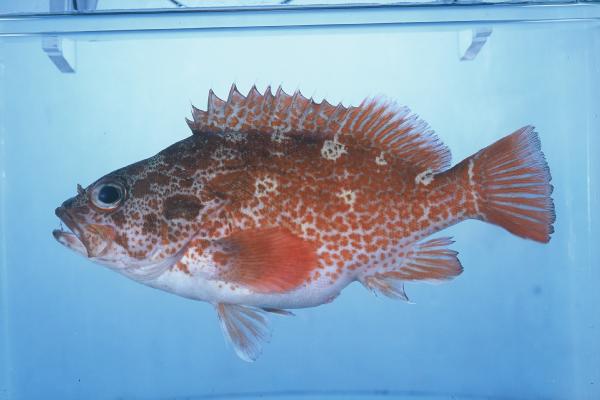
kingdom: Animalia
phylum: Chordata
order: Perciformes
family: Serranidae
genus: Acanthistius
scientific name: Acanthistius joanae
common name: Scalyjaw koester
